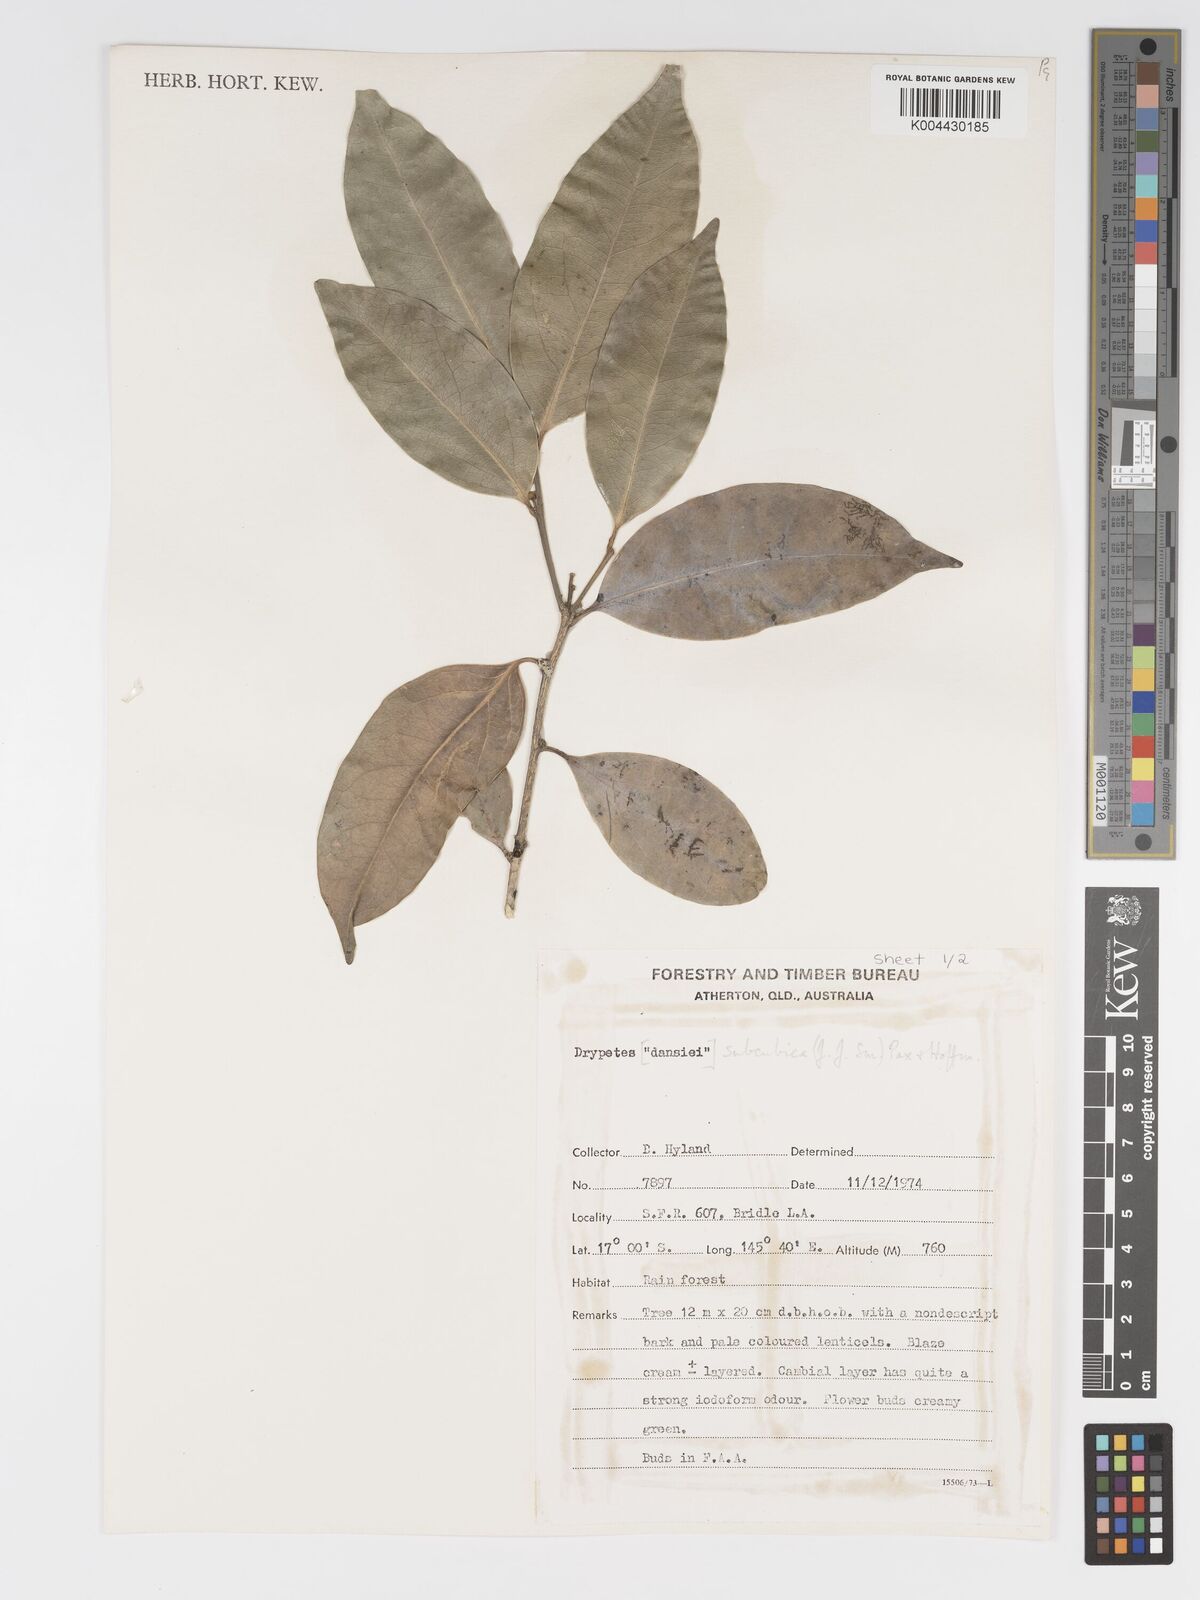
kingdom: Plantae
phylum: Tracheophyta
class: Magnoliopsida
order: Malpighiales
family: Putranjivaceae
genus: Drypetes
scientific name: Drypetes subcubica
